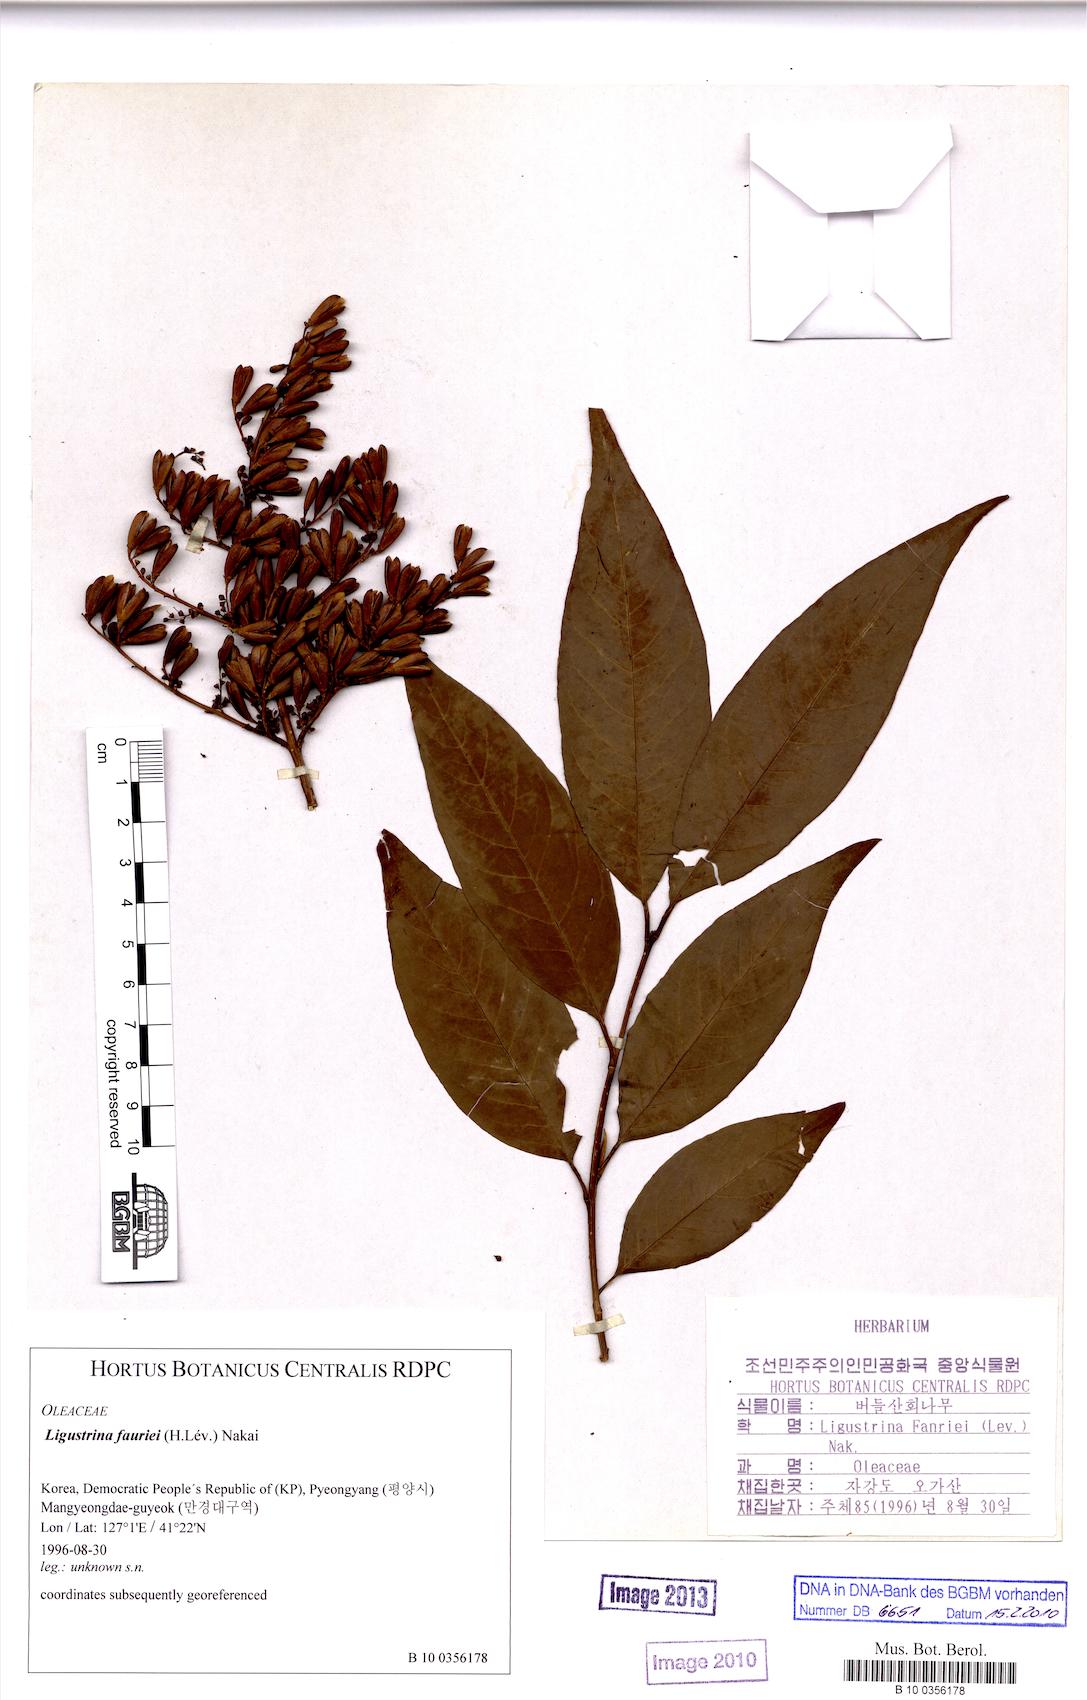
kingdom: Plantae
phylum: Tracheophyta
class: Magnoliopsida
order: Lamiales
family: Oleaceae
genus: Syringa
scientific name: Syringa reticulata
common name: Japanese tree lilac
